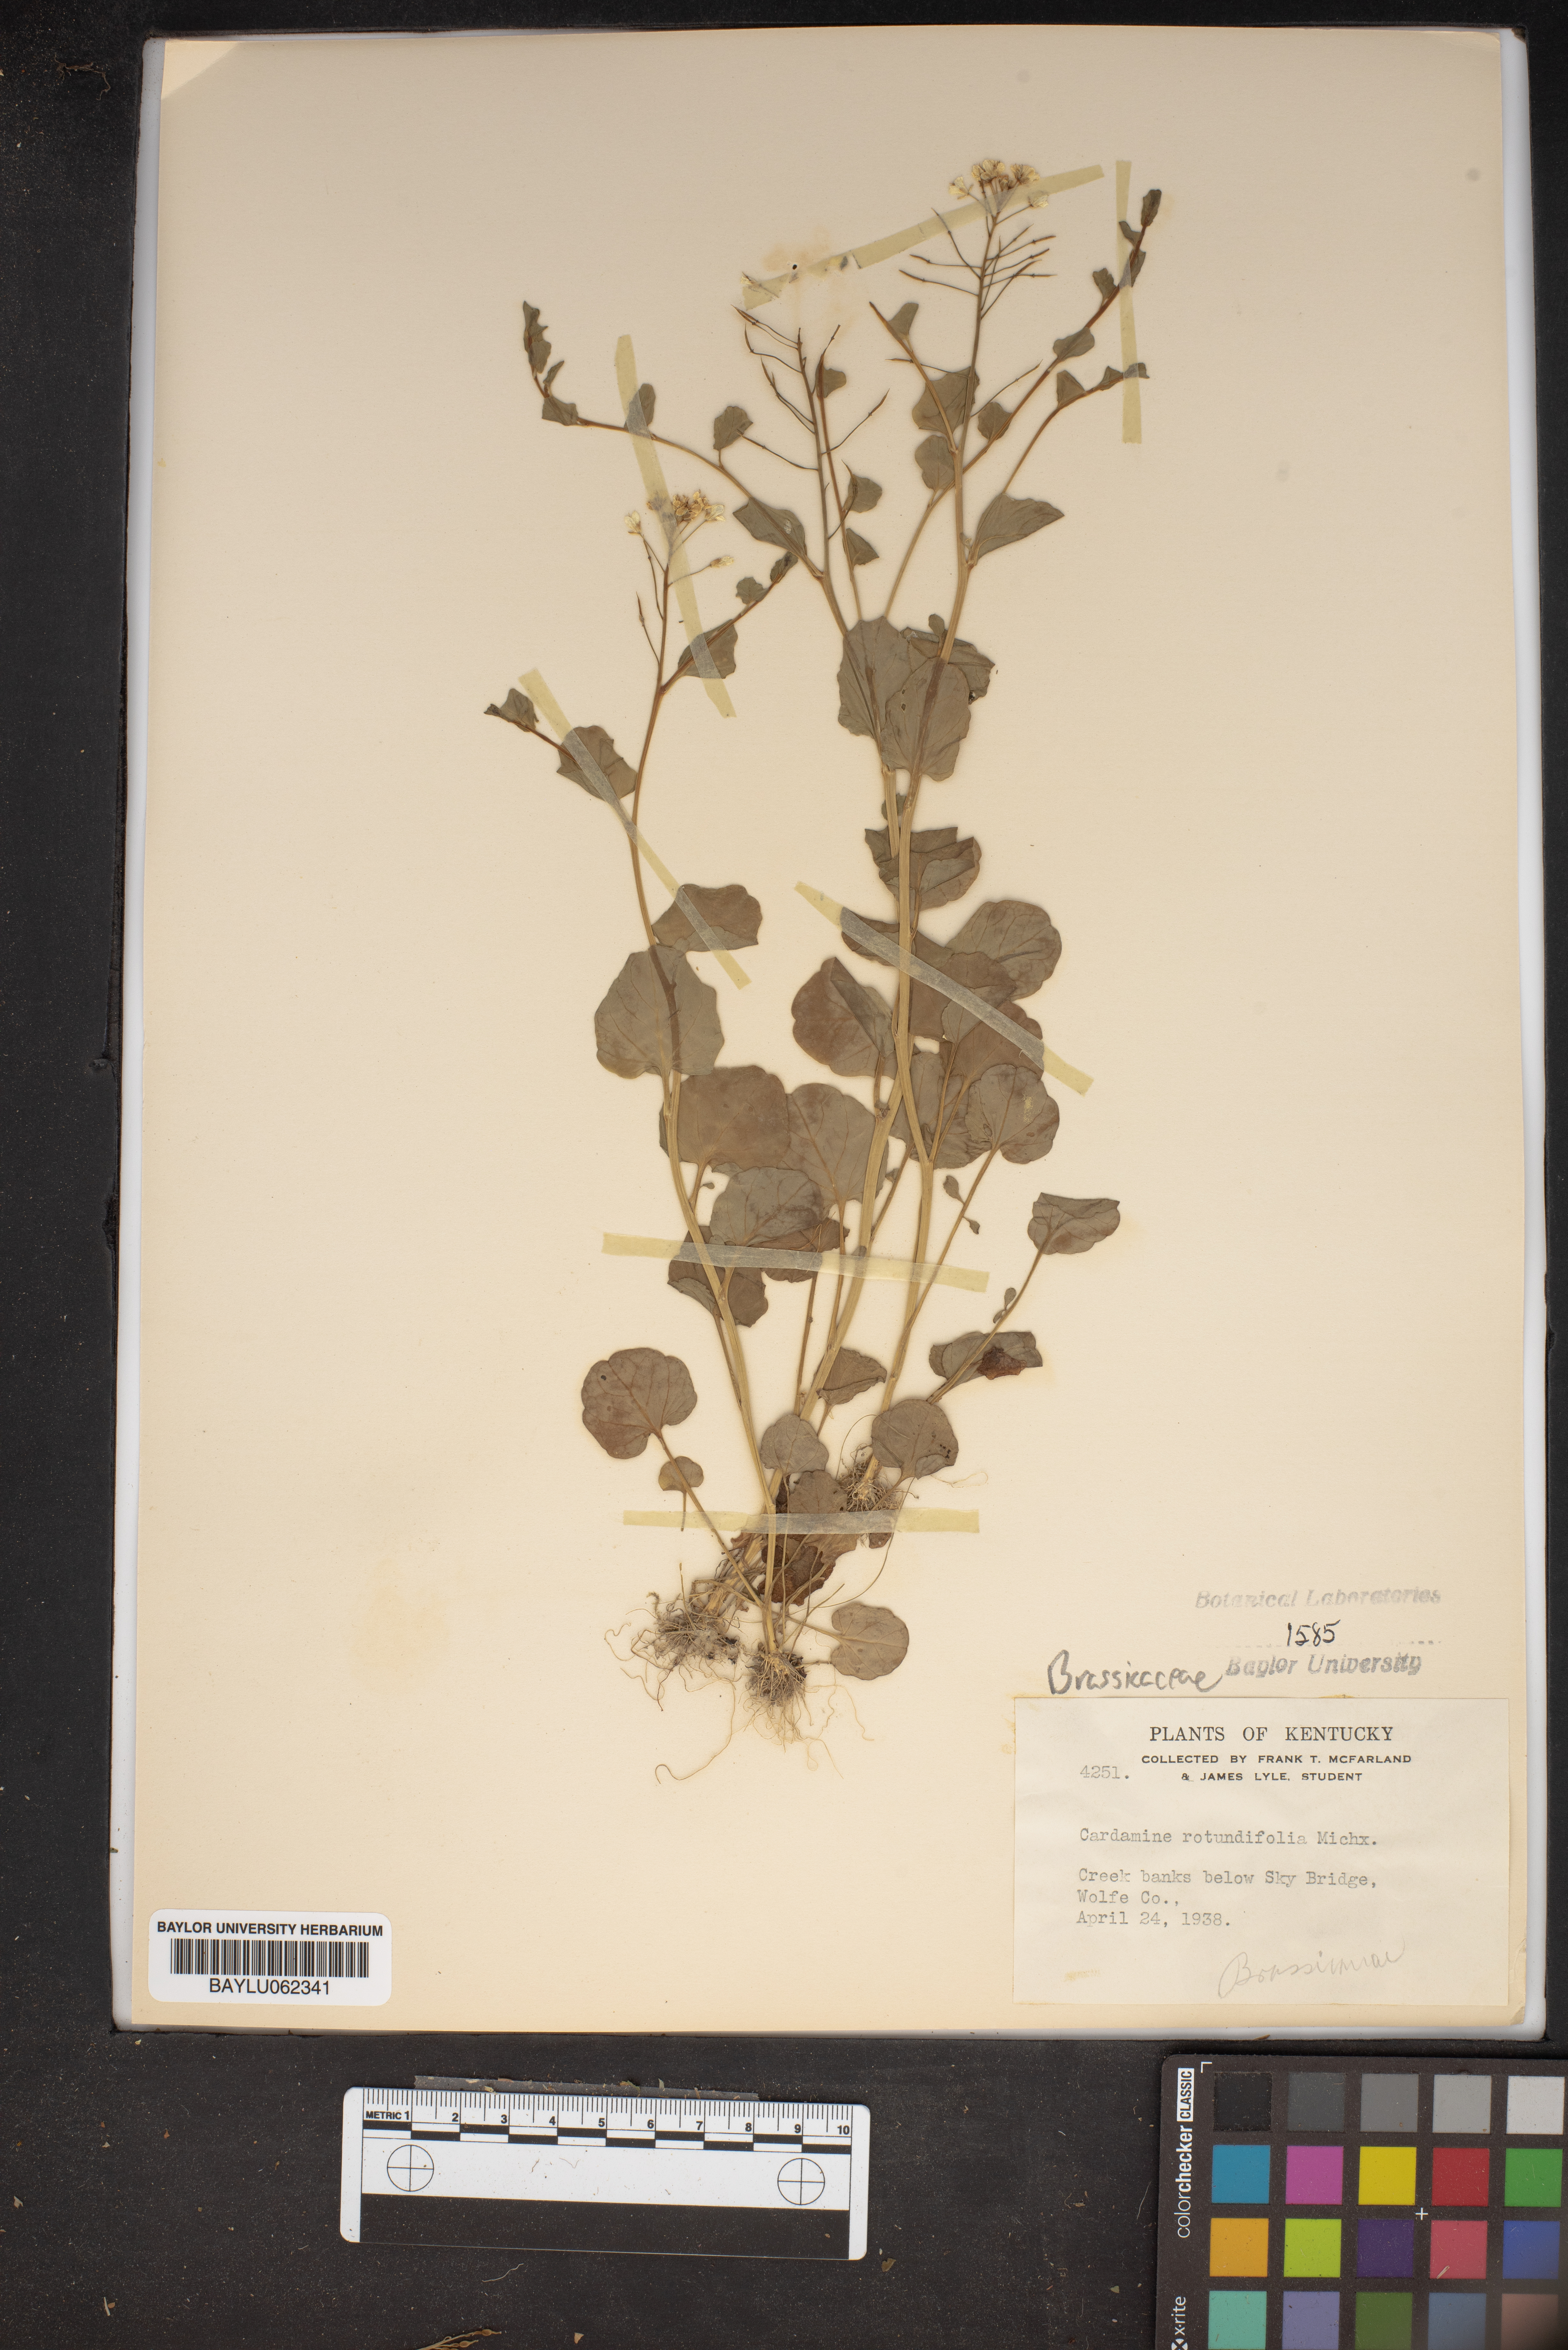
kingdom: Plantae
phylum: Tracheophyta
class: Magnoliopsida
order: Brassicales
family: Brassicaceae
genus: Cardamine
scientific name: Cardamine rotundifolia
